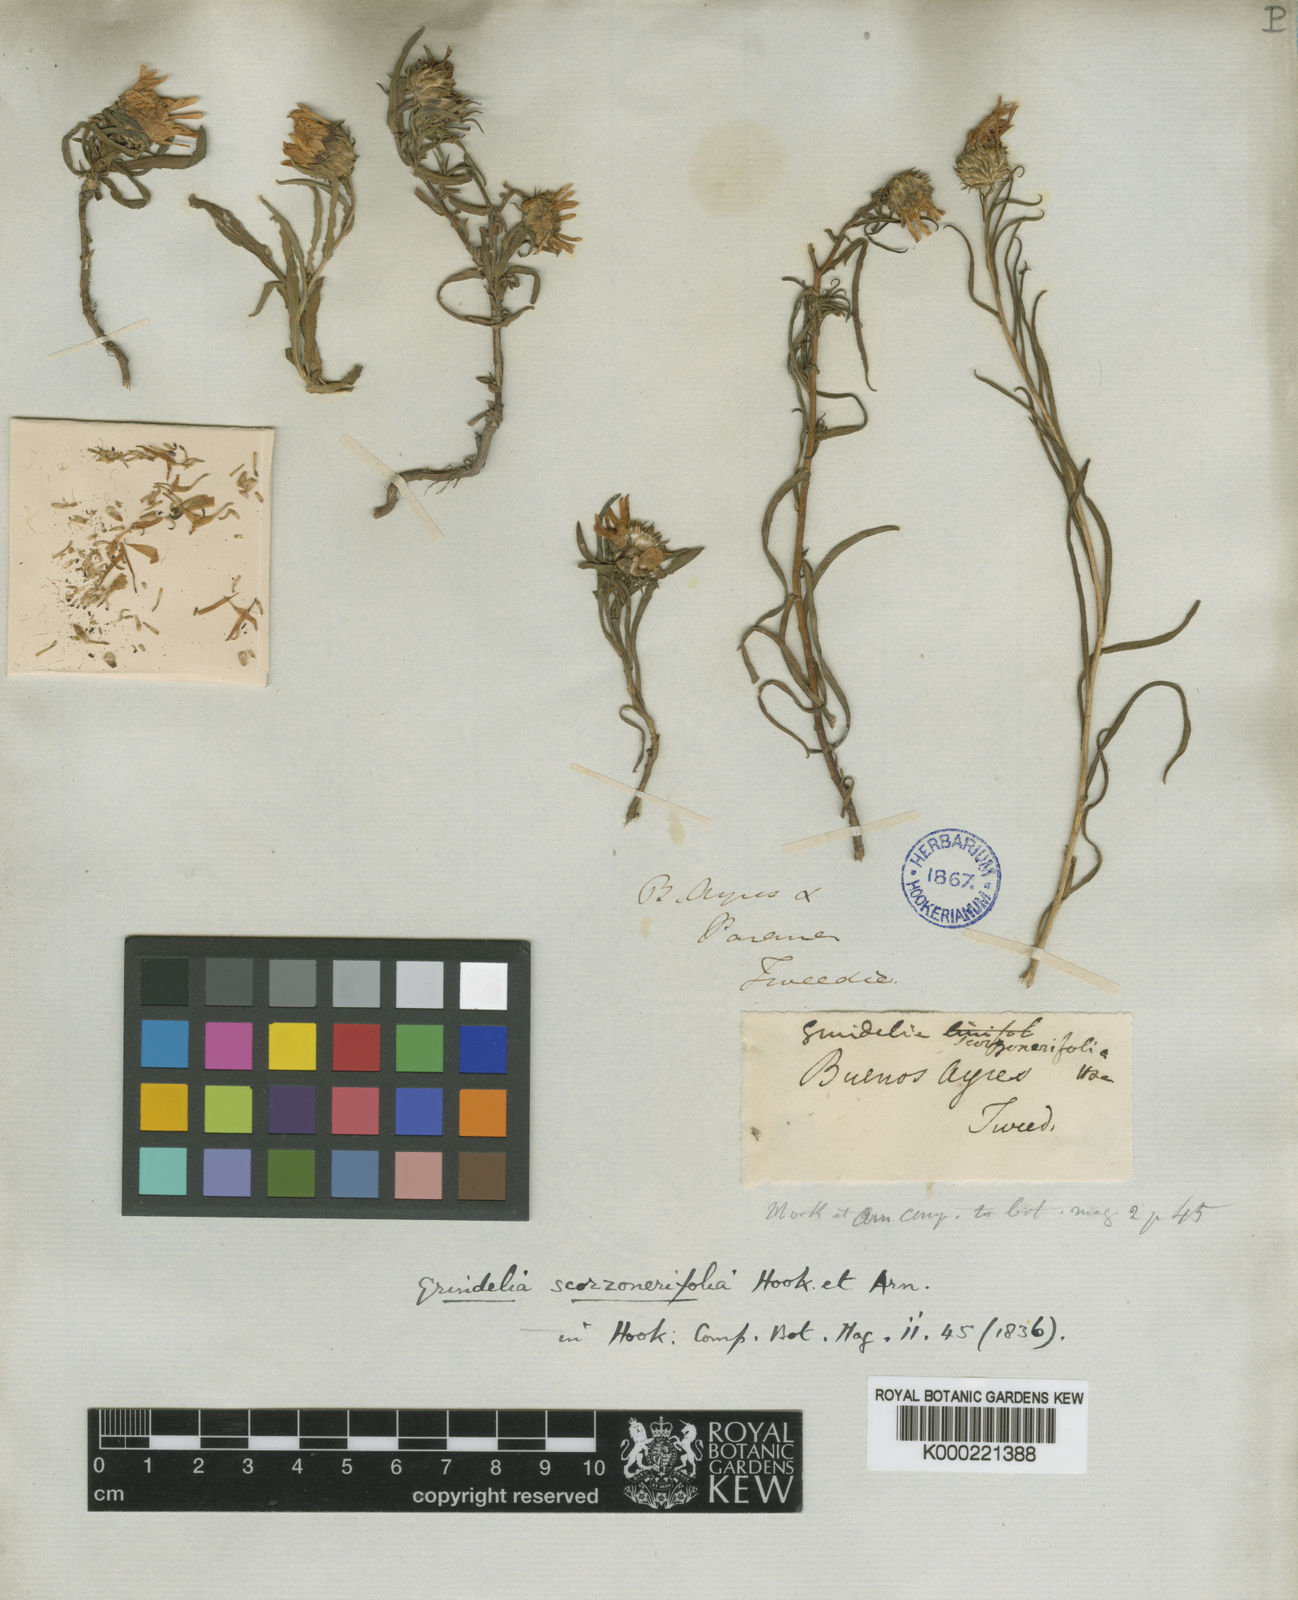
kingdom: Plantae
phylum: Tracheophyta
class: Magnoliopsida
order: Asterales
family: Asteraceae
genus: Grindelia
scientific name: Grindelia scorzonerifolia
